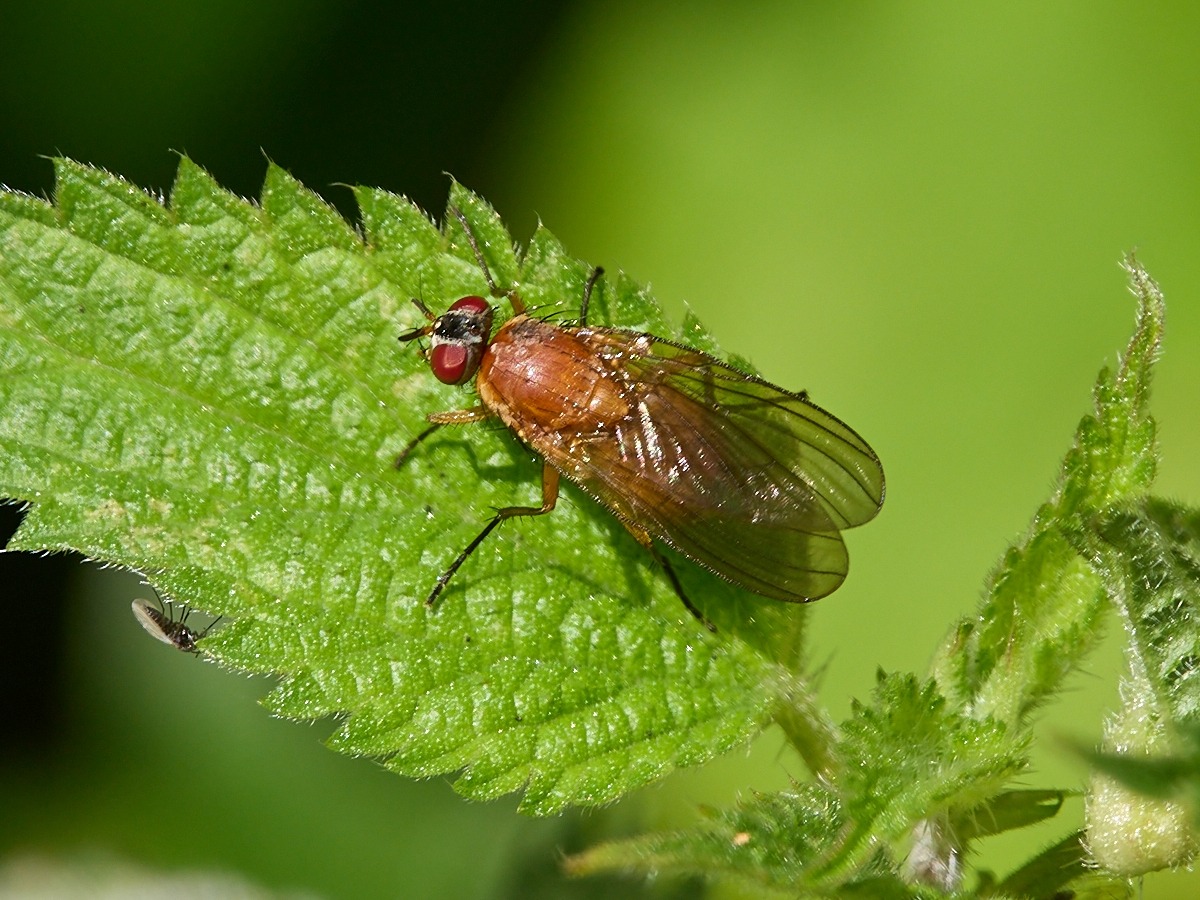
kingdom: Animalia
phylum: Arthropoda
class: Insecta
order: Diptera
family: Muscidae
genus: Thricops
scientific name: Thricops diaphanus
